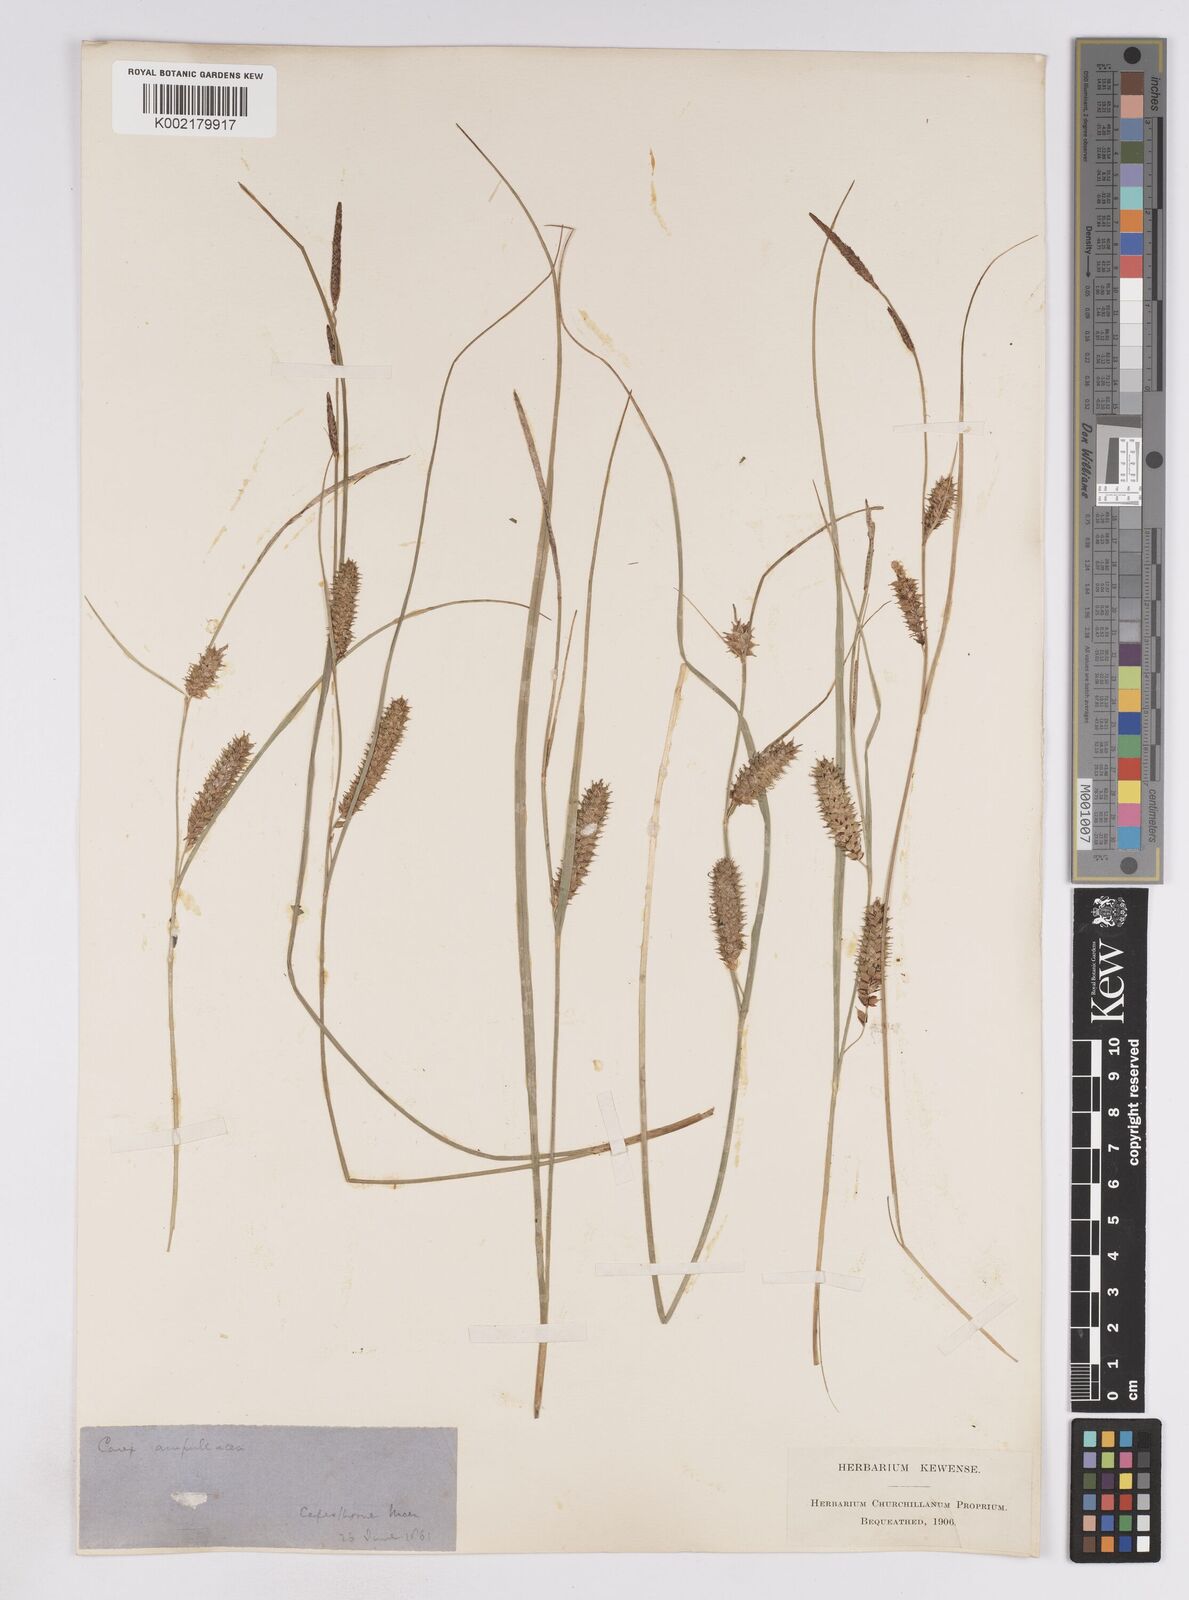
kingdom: Plantae
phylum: Tracheophyta
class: Liliopsida
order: Poales
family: Cyperaceae
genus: Carex
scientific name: Carex rostrata
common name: Bottle sedge
